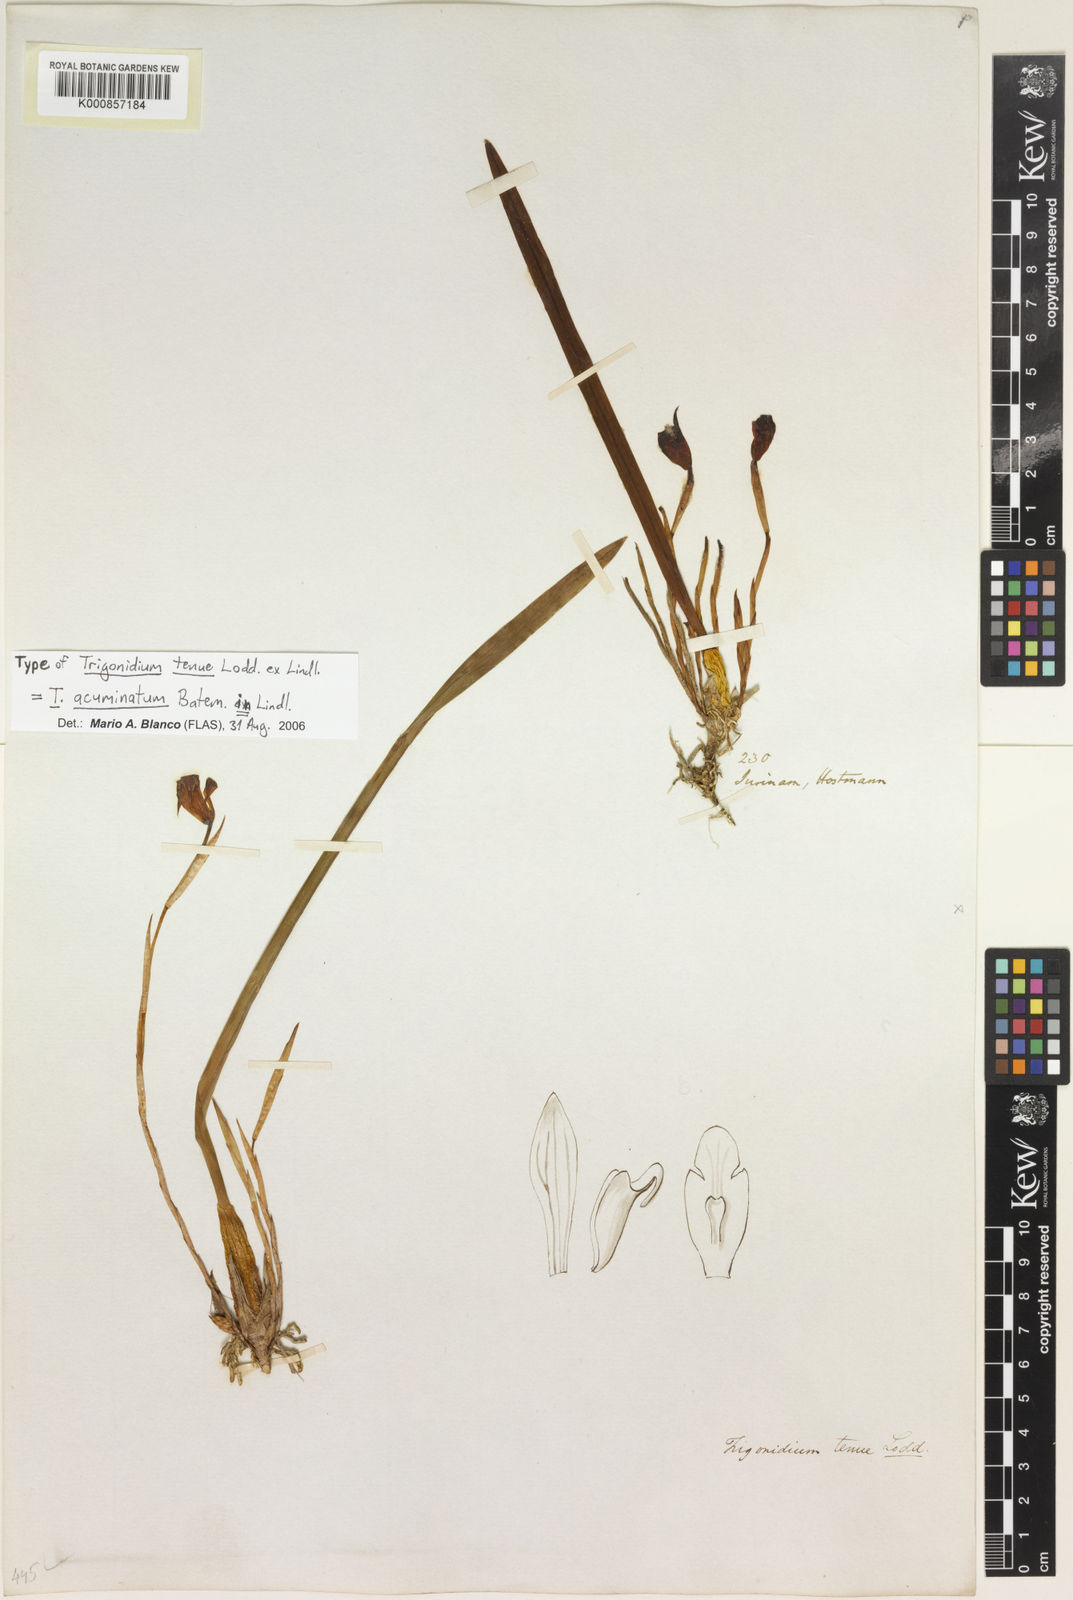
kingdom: Plantae
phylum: Tracheophyta
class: Liliopsida
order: Asparagales
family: Orchidaceae
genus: Maxillaria
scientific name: Maxillaria subrepens
